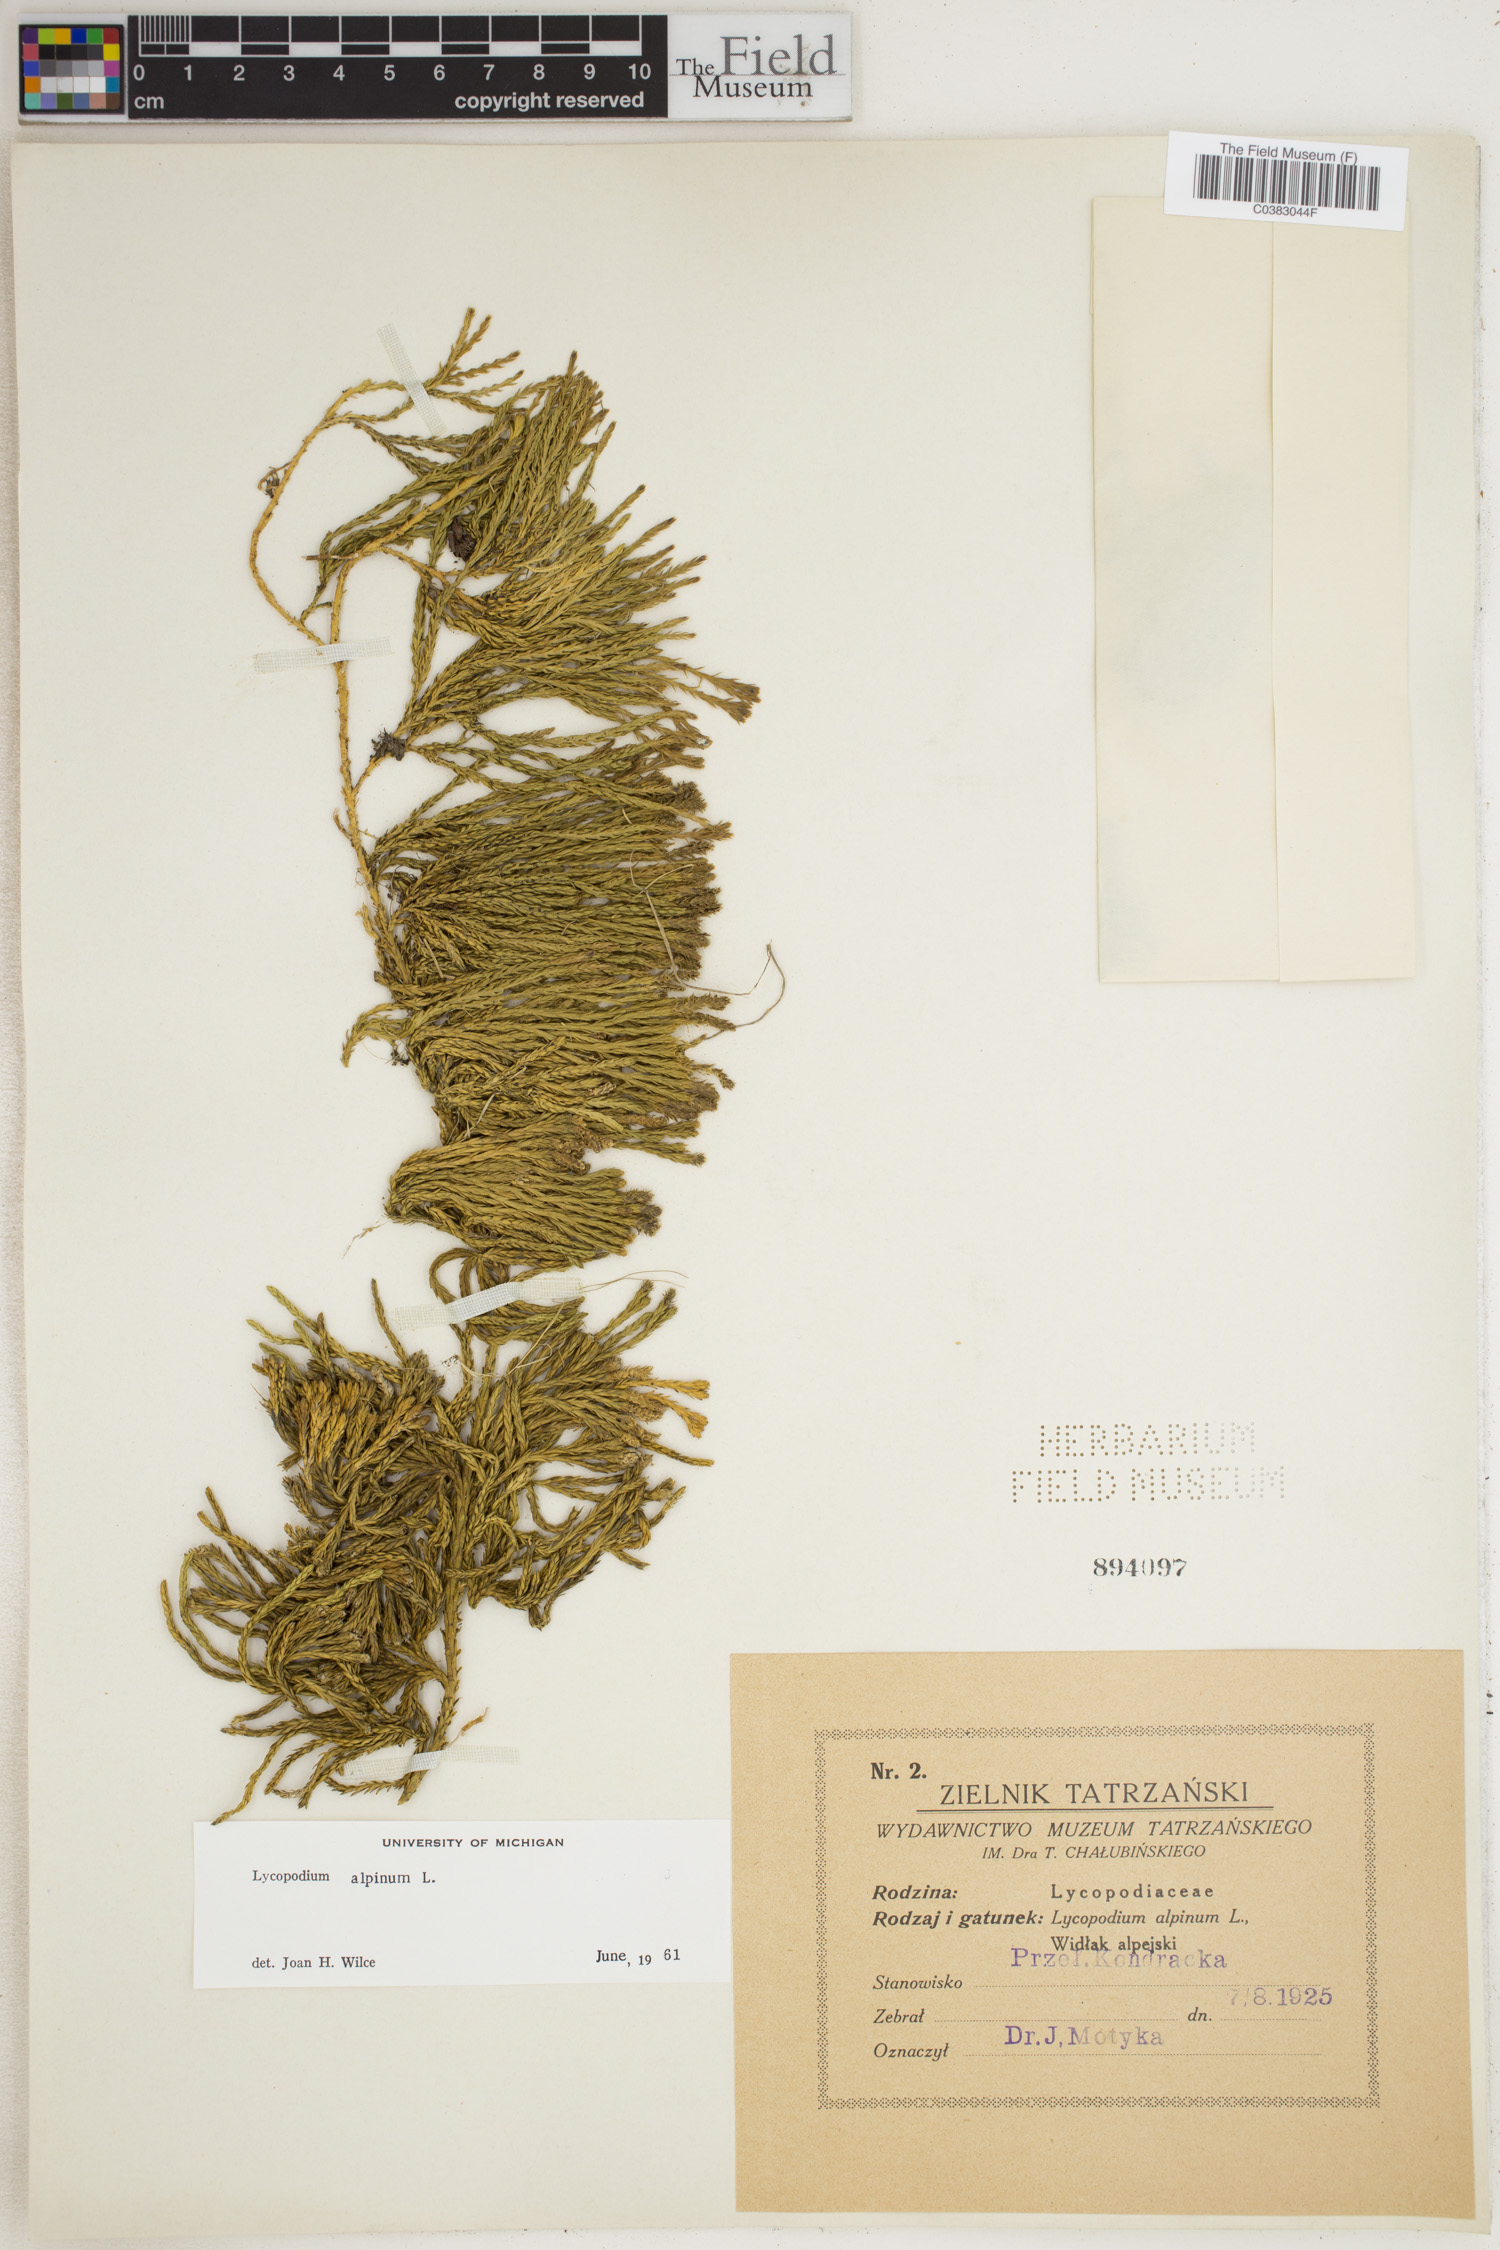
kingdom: Plantae
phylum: Tracheophyta
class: Lycopodiopsida
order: Lycopodiales
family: Lycopodiaceae
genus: Diphasiastrum
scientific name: Diphasiastrum alpinum
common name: Alpine clubmoss
